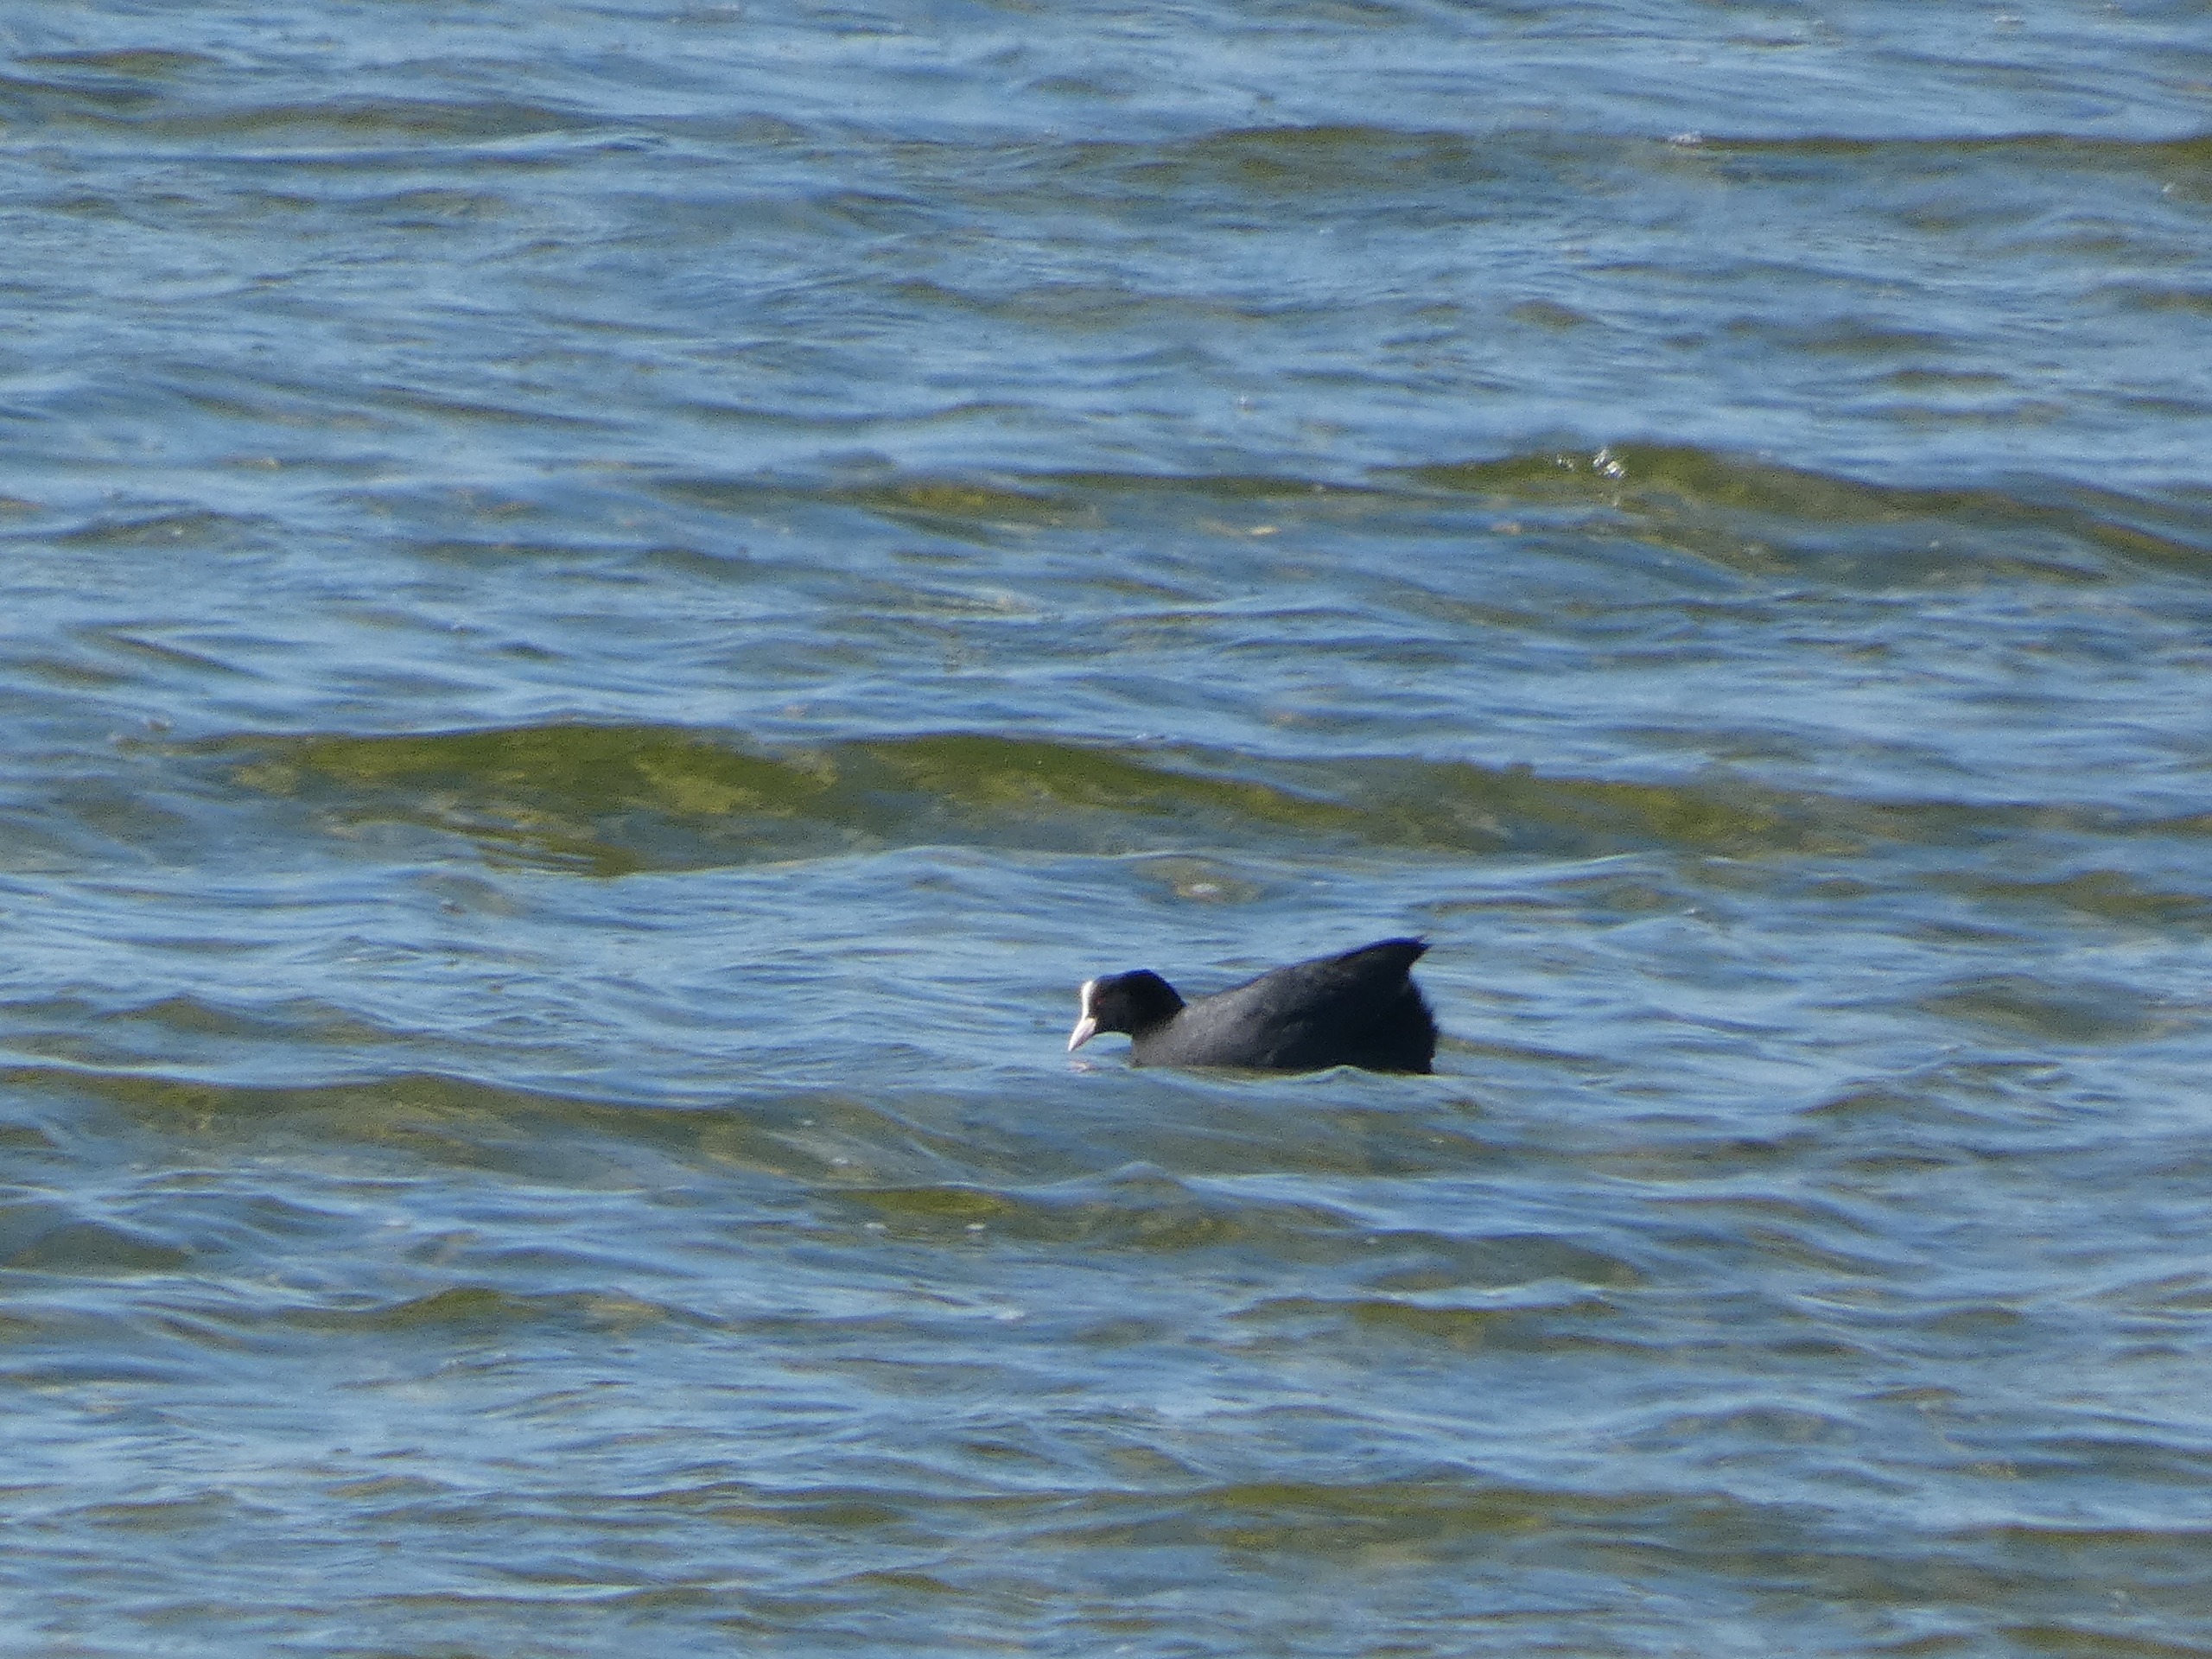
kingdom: Animalia
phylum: Chordata
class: Aves
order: Gruiformes
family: Rallidae
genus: Fulica
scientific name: Fulica atra
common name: Blishøne
